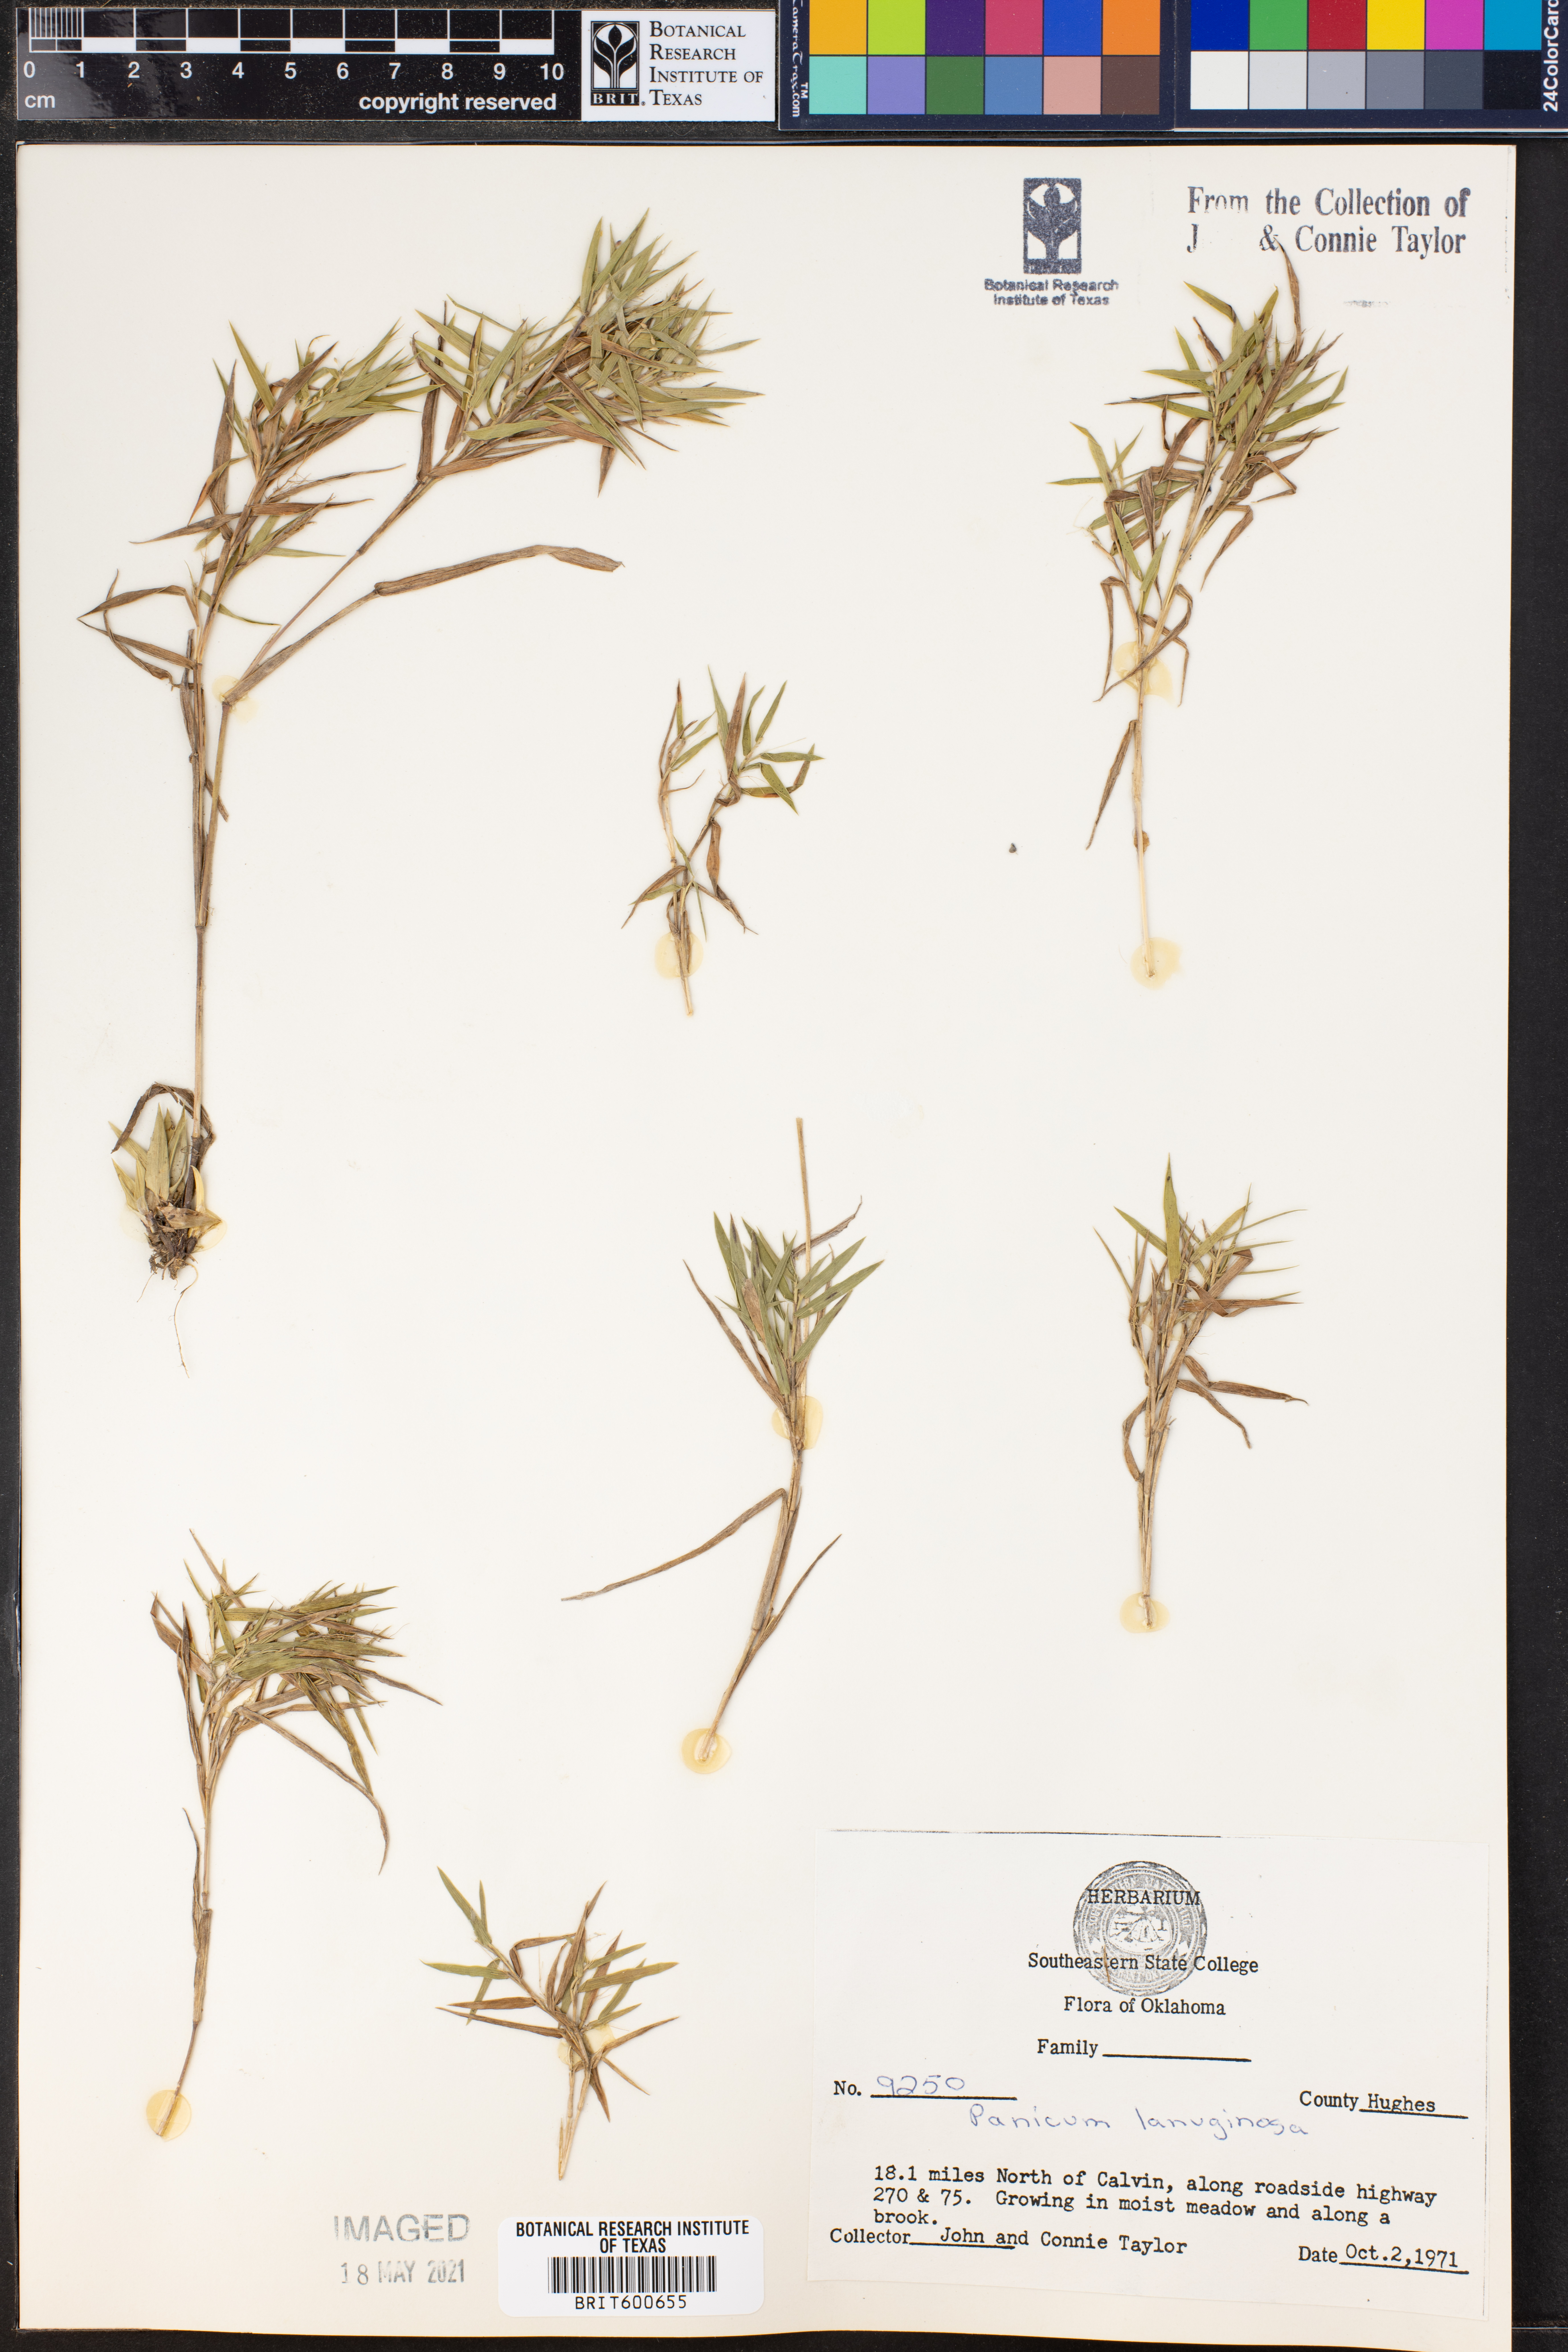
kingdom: Plantae
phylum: Tracheophyta
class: Liliopsida
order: Poales
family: Poaceae
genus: Dichanthelium
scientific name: Dichanthelium lanuginosum
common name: Woolly panicgrass
